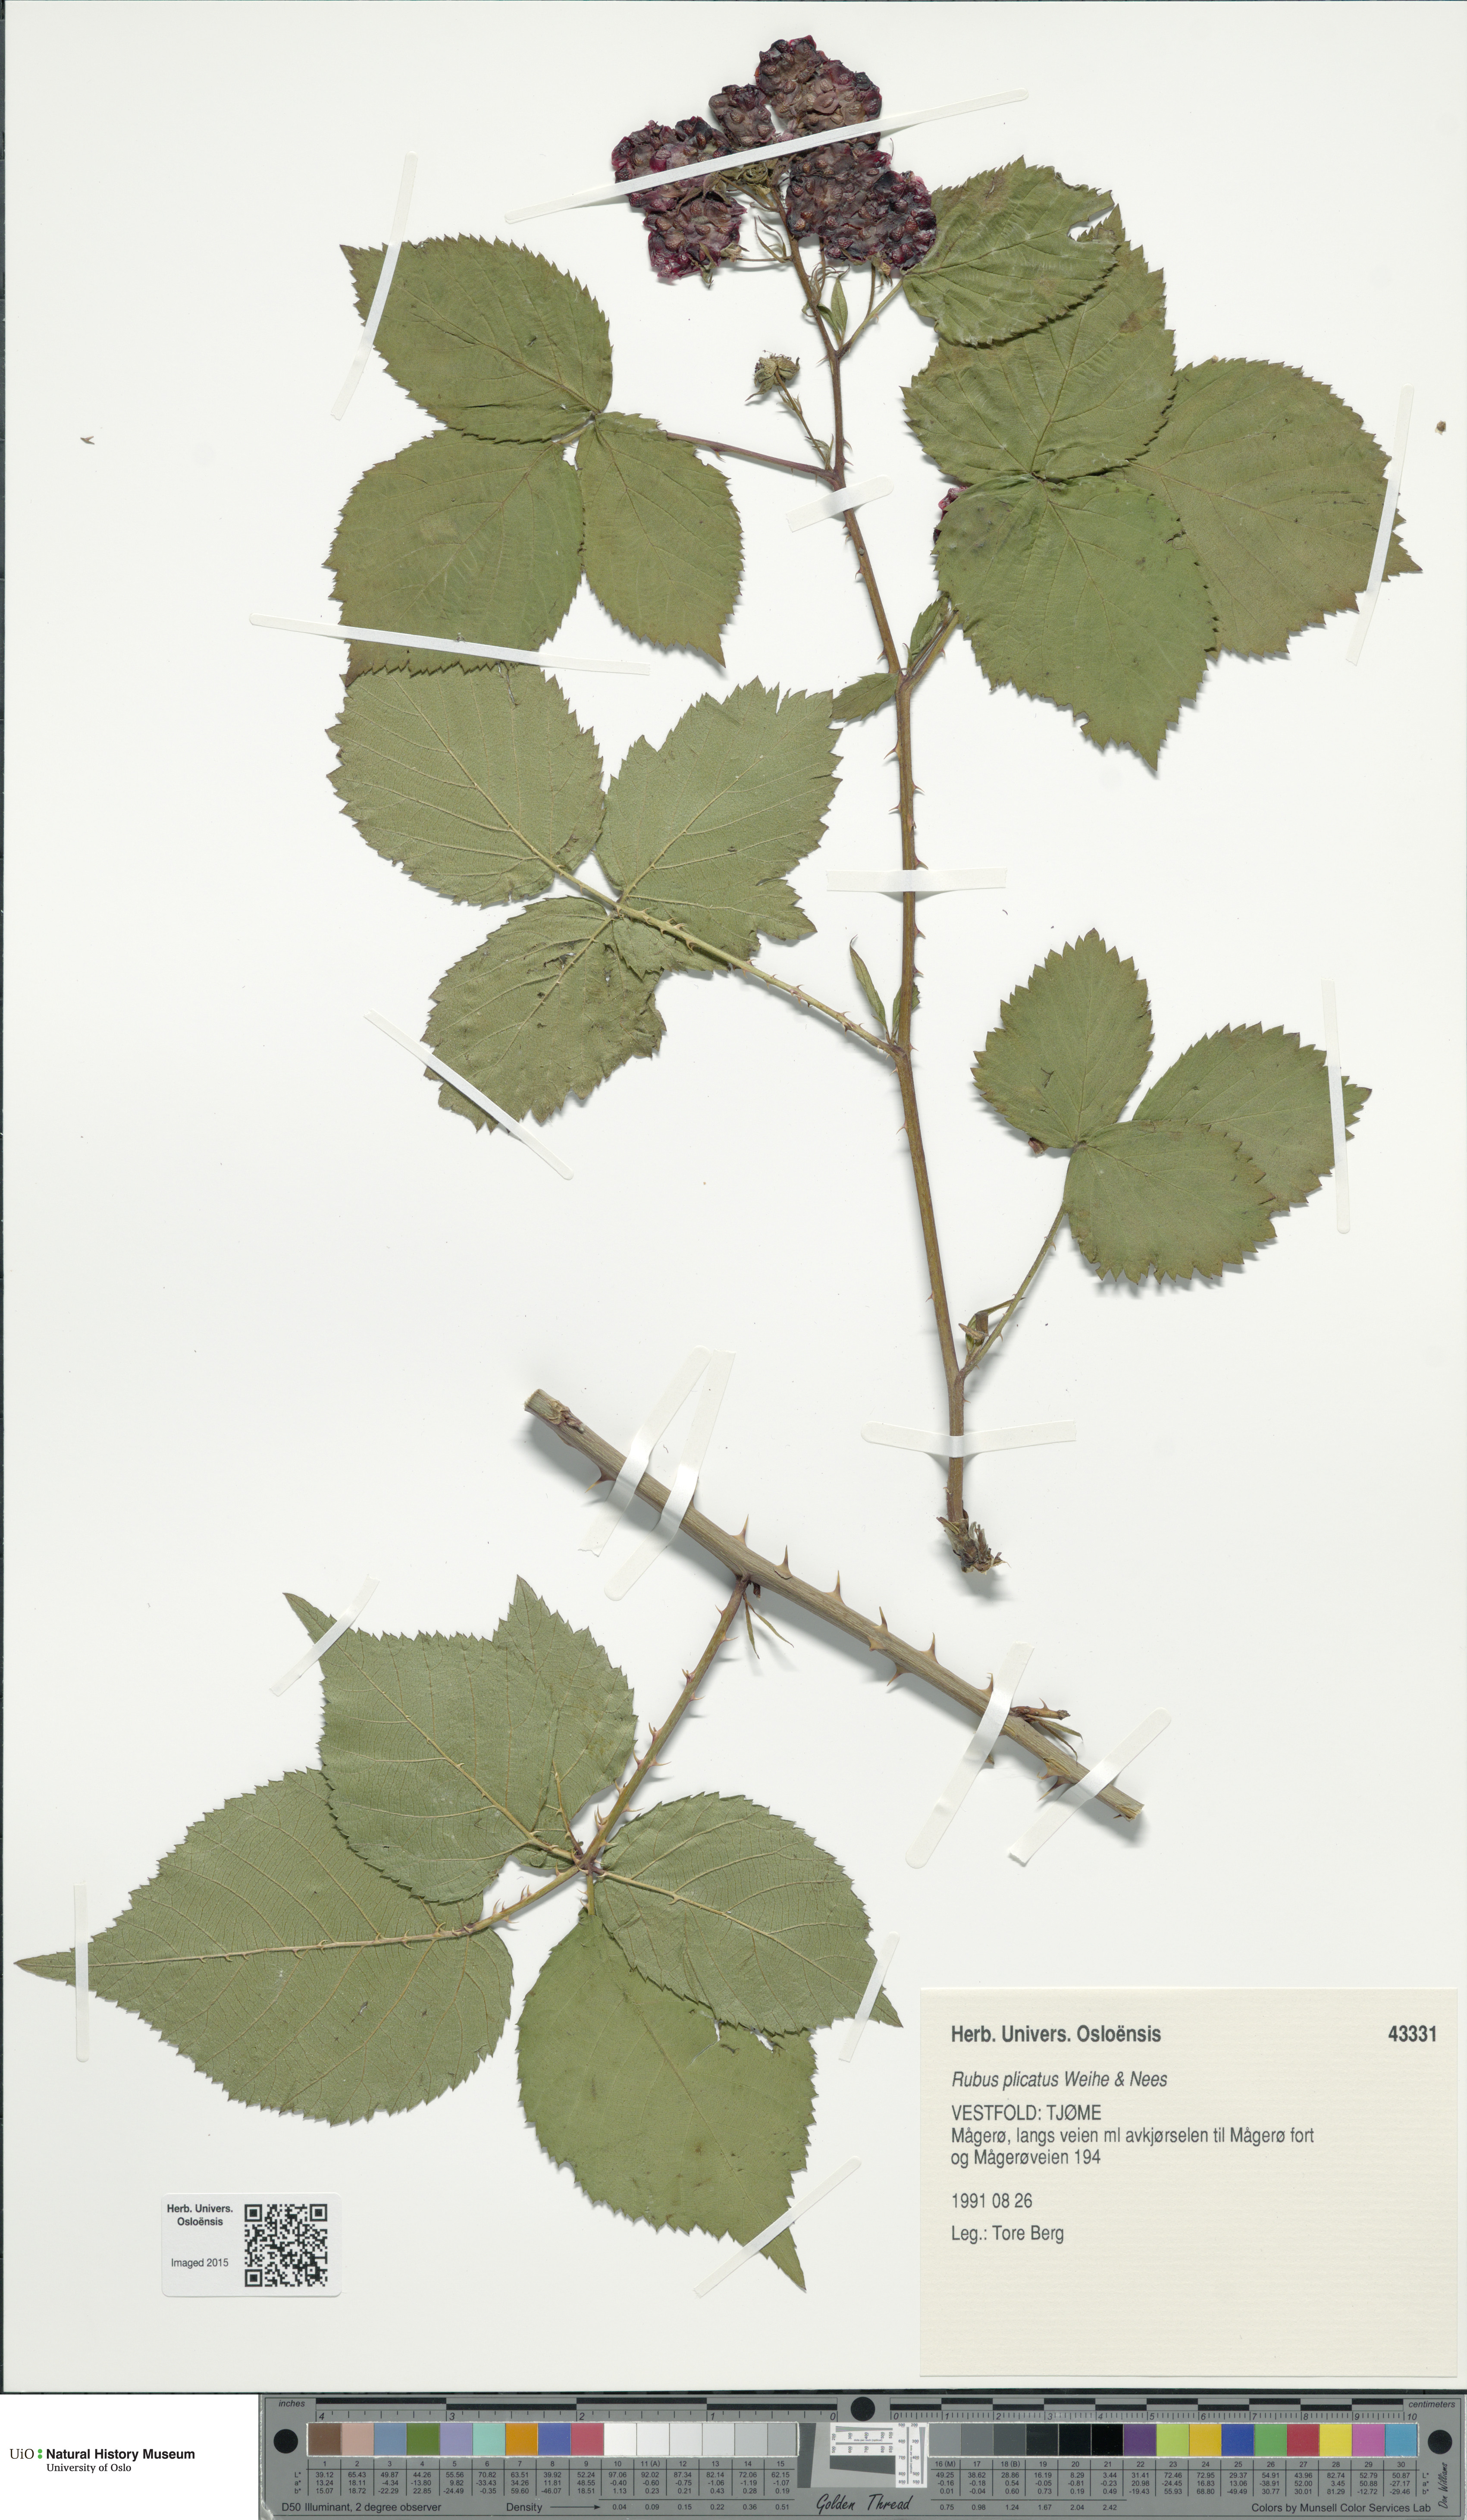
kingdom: Plantae
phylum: Tracheophyta
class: Magnoliopsida
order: Rosales
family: Rosaceae
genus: Rubus
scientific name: Rubus fruticosus
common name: Blackberry, bramble
